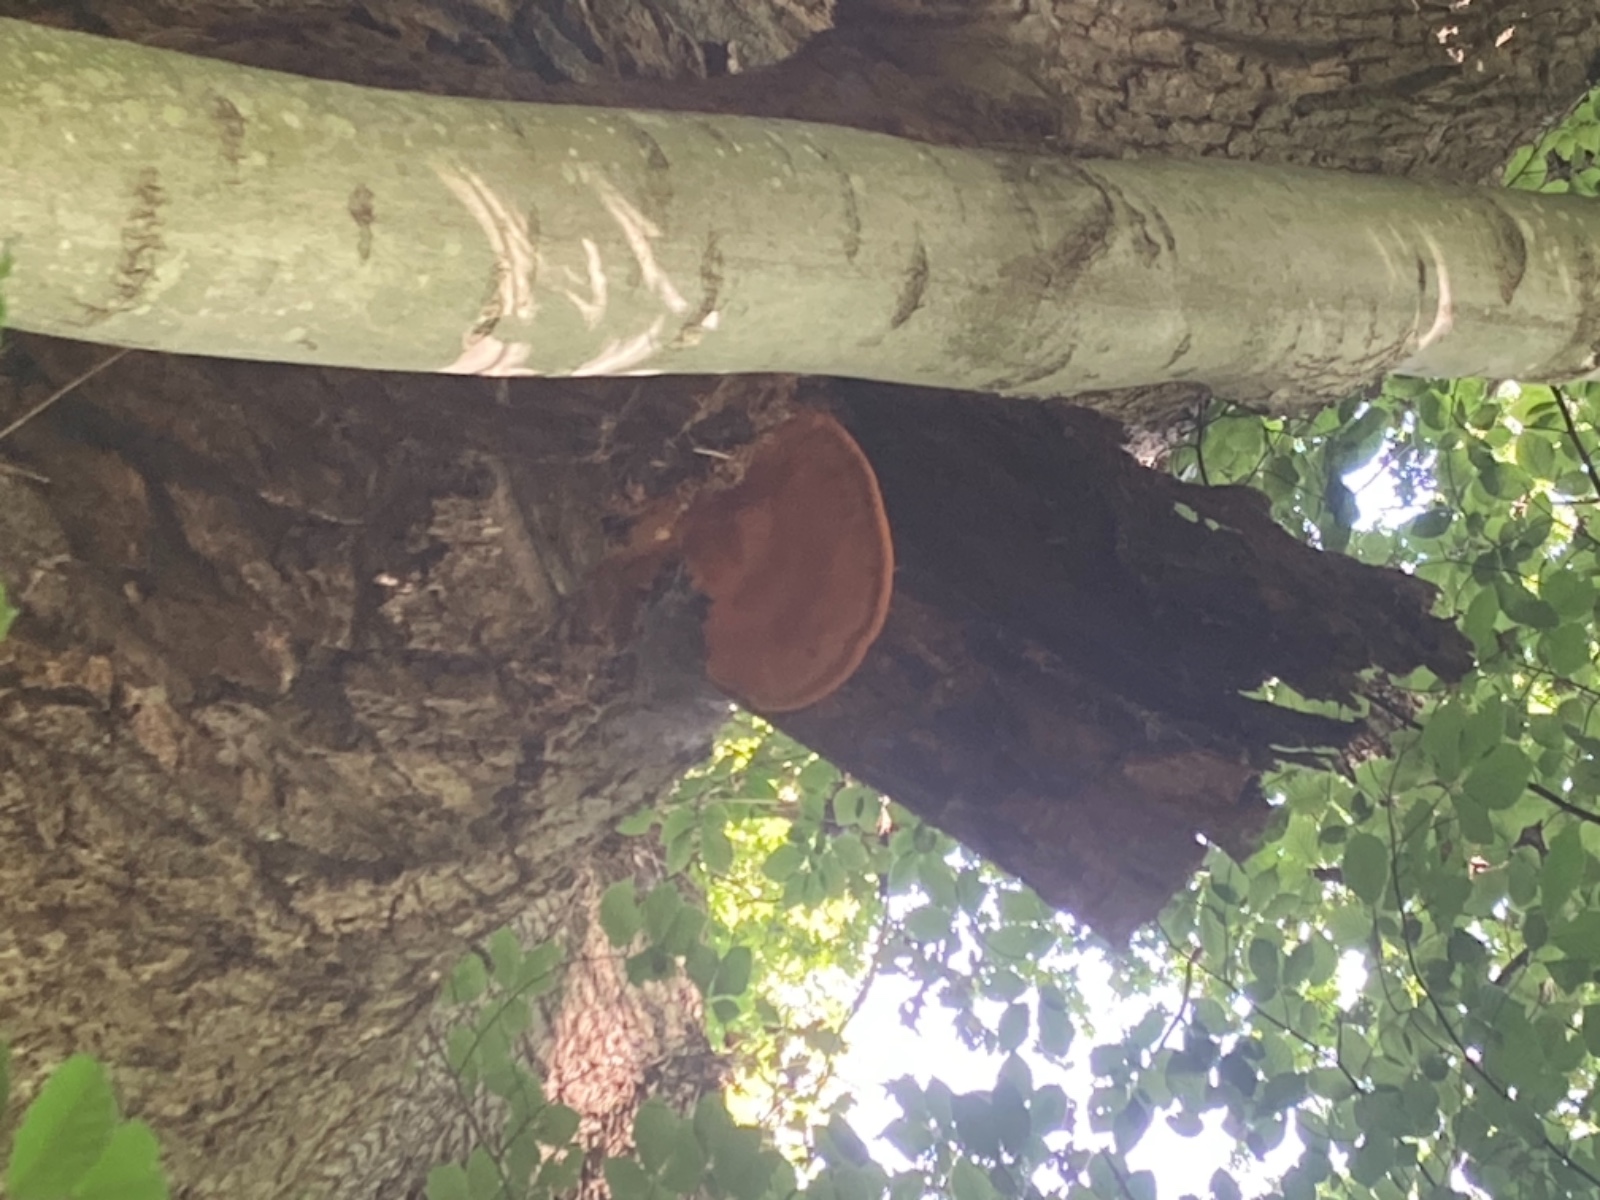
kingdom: Fungi
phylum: Basidiomycota
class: Agaricomycetes
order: Polyporales
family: Phanerochaetaceae
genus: Hapalopilus
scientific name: Hapalopilus croceus
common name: safrangul pragtporesvamp
